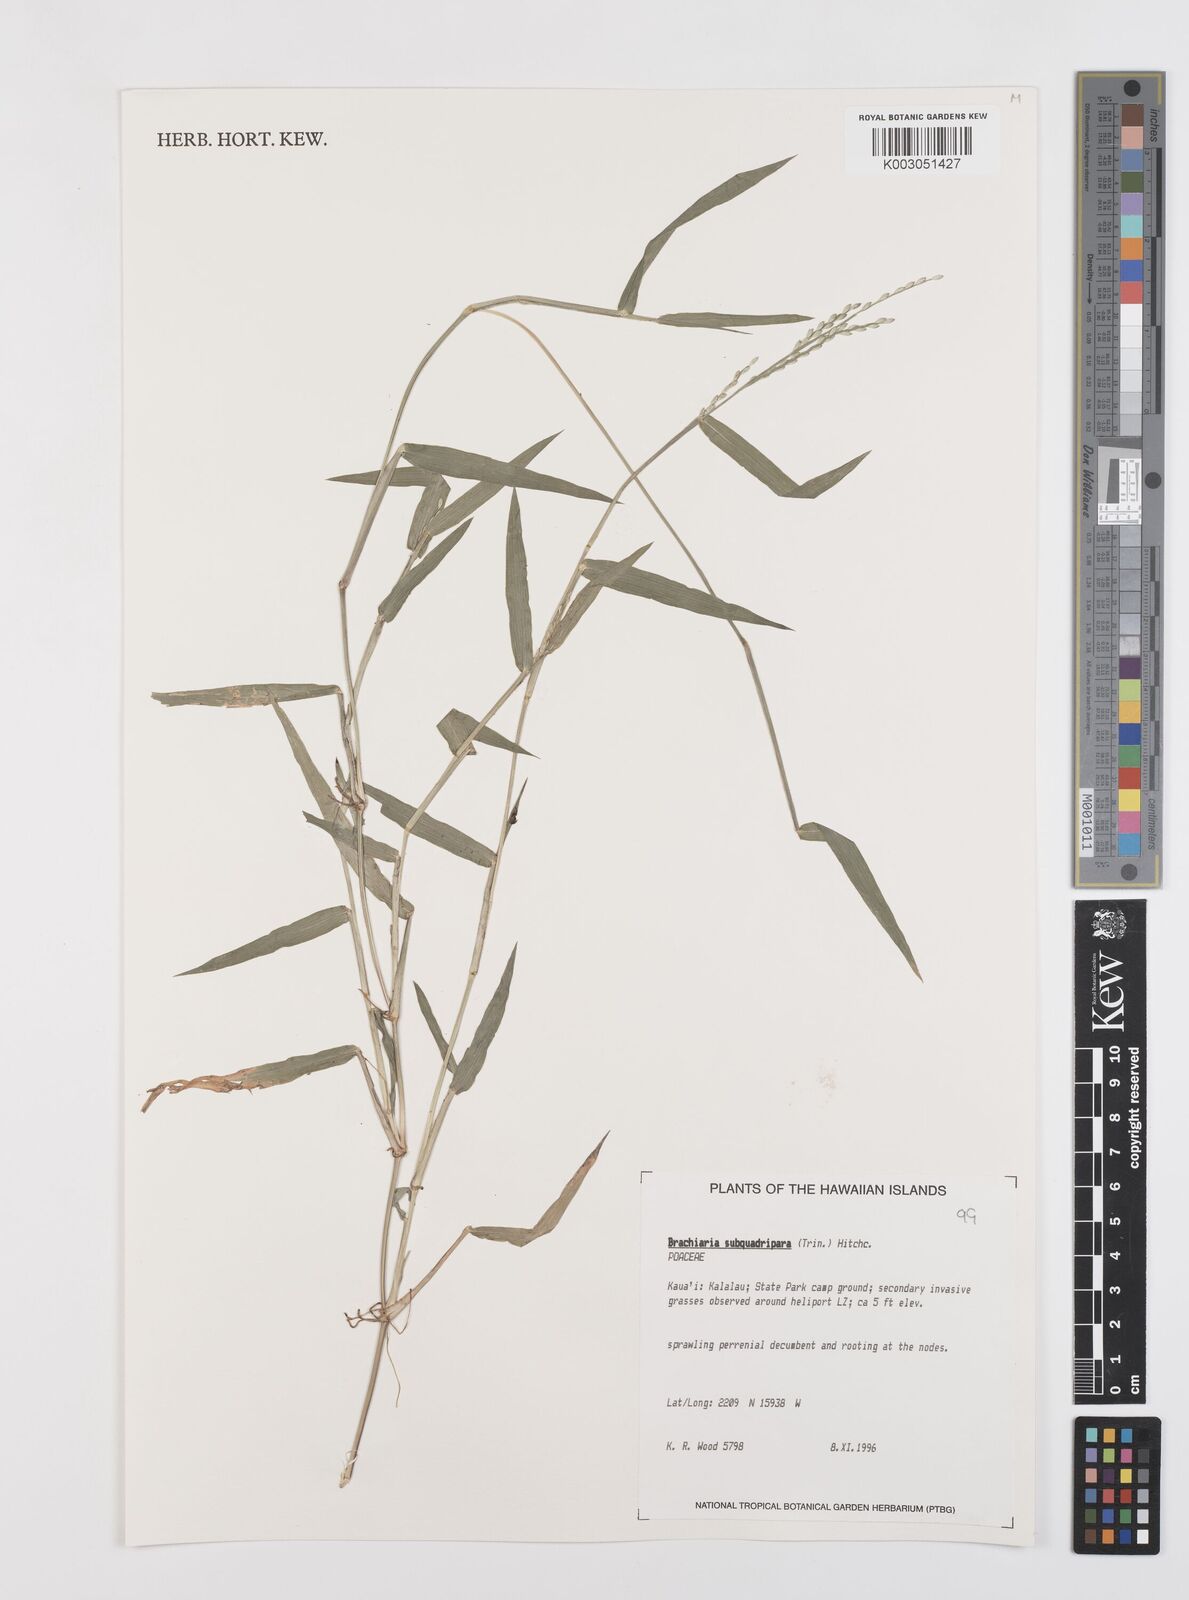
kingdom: Plantae
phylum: Tracheophyta
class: Liliopsida
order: Poales
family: Poaceae
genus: Urochloa
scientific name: Urochloa subquadripara
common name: Armgrass millet
